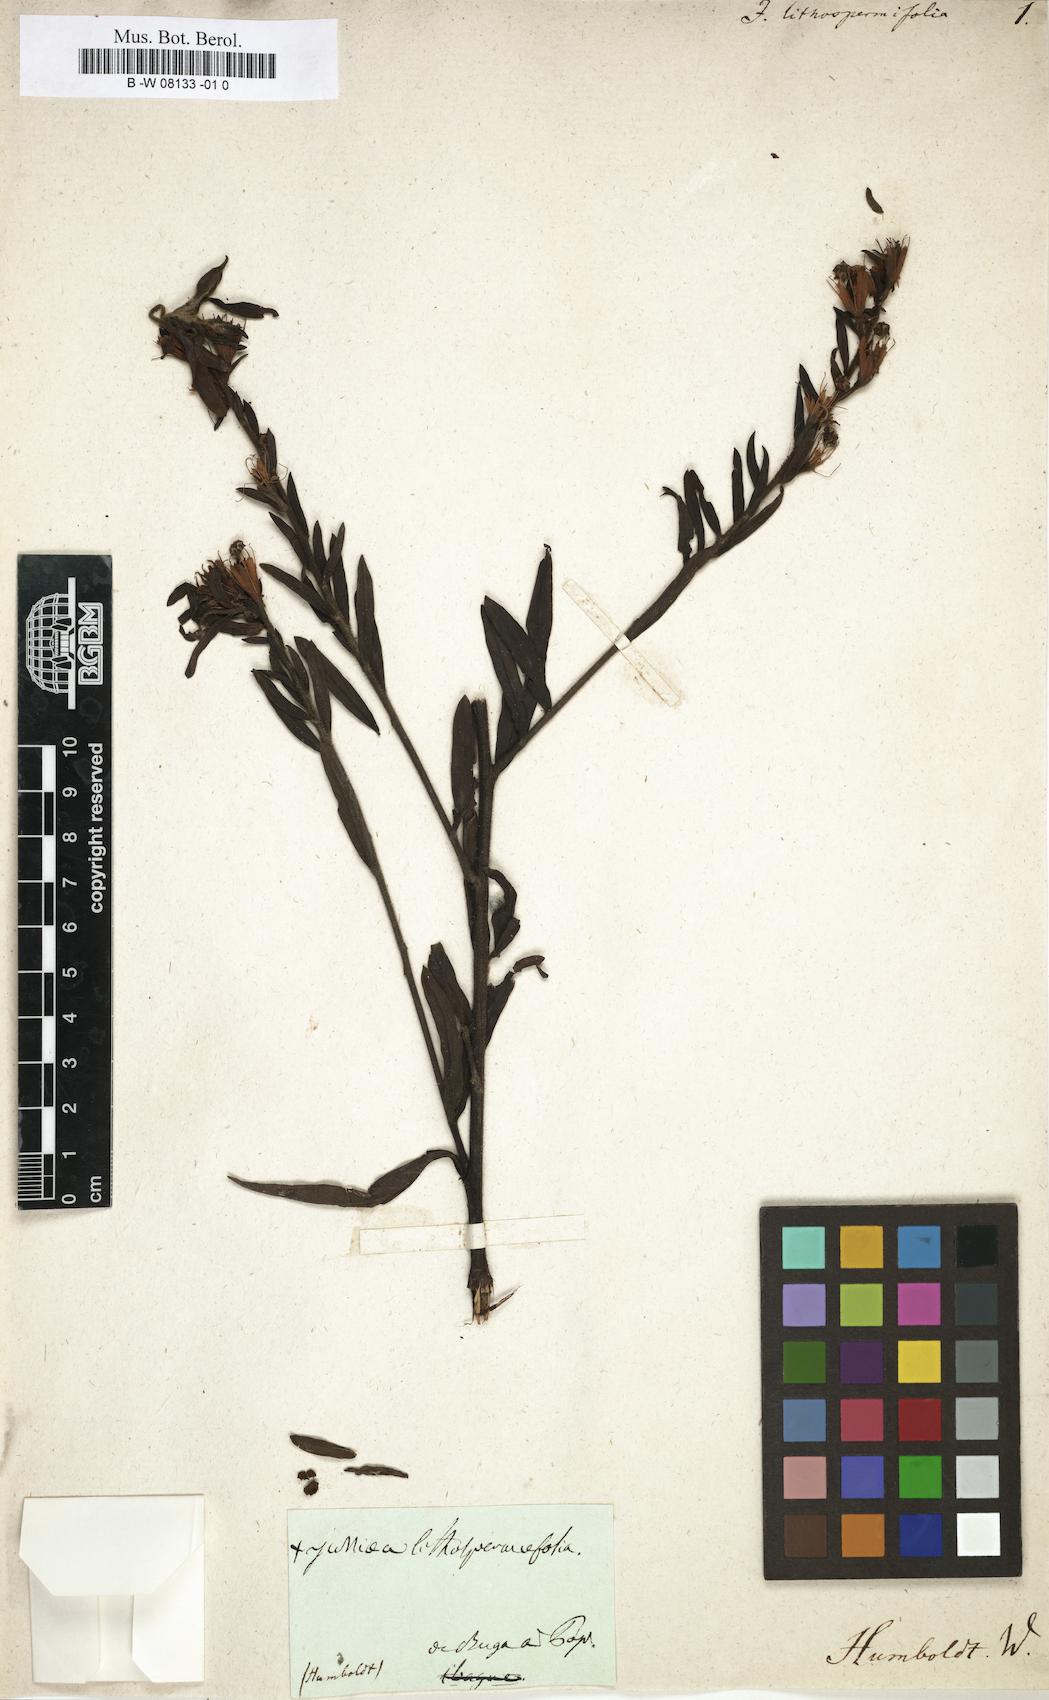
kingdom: Plantae
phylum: Tracheophyta
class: Magnoliopsida
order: Myrtales
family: Onagraceae
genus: Ludwigia
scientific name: Ludwigia rigida
